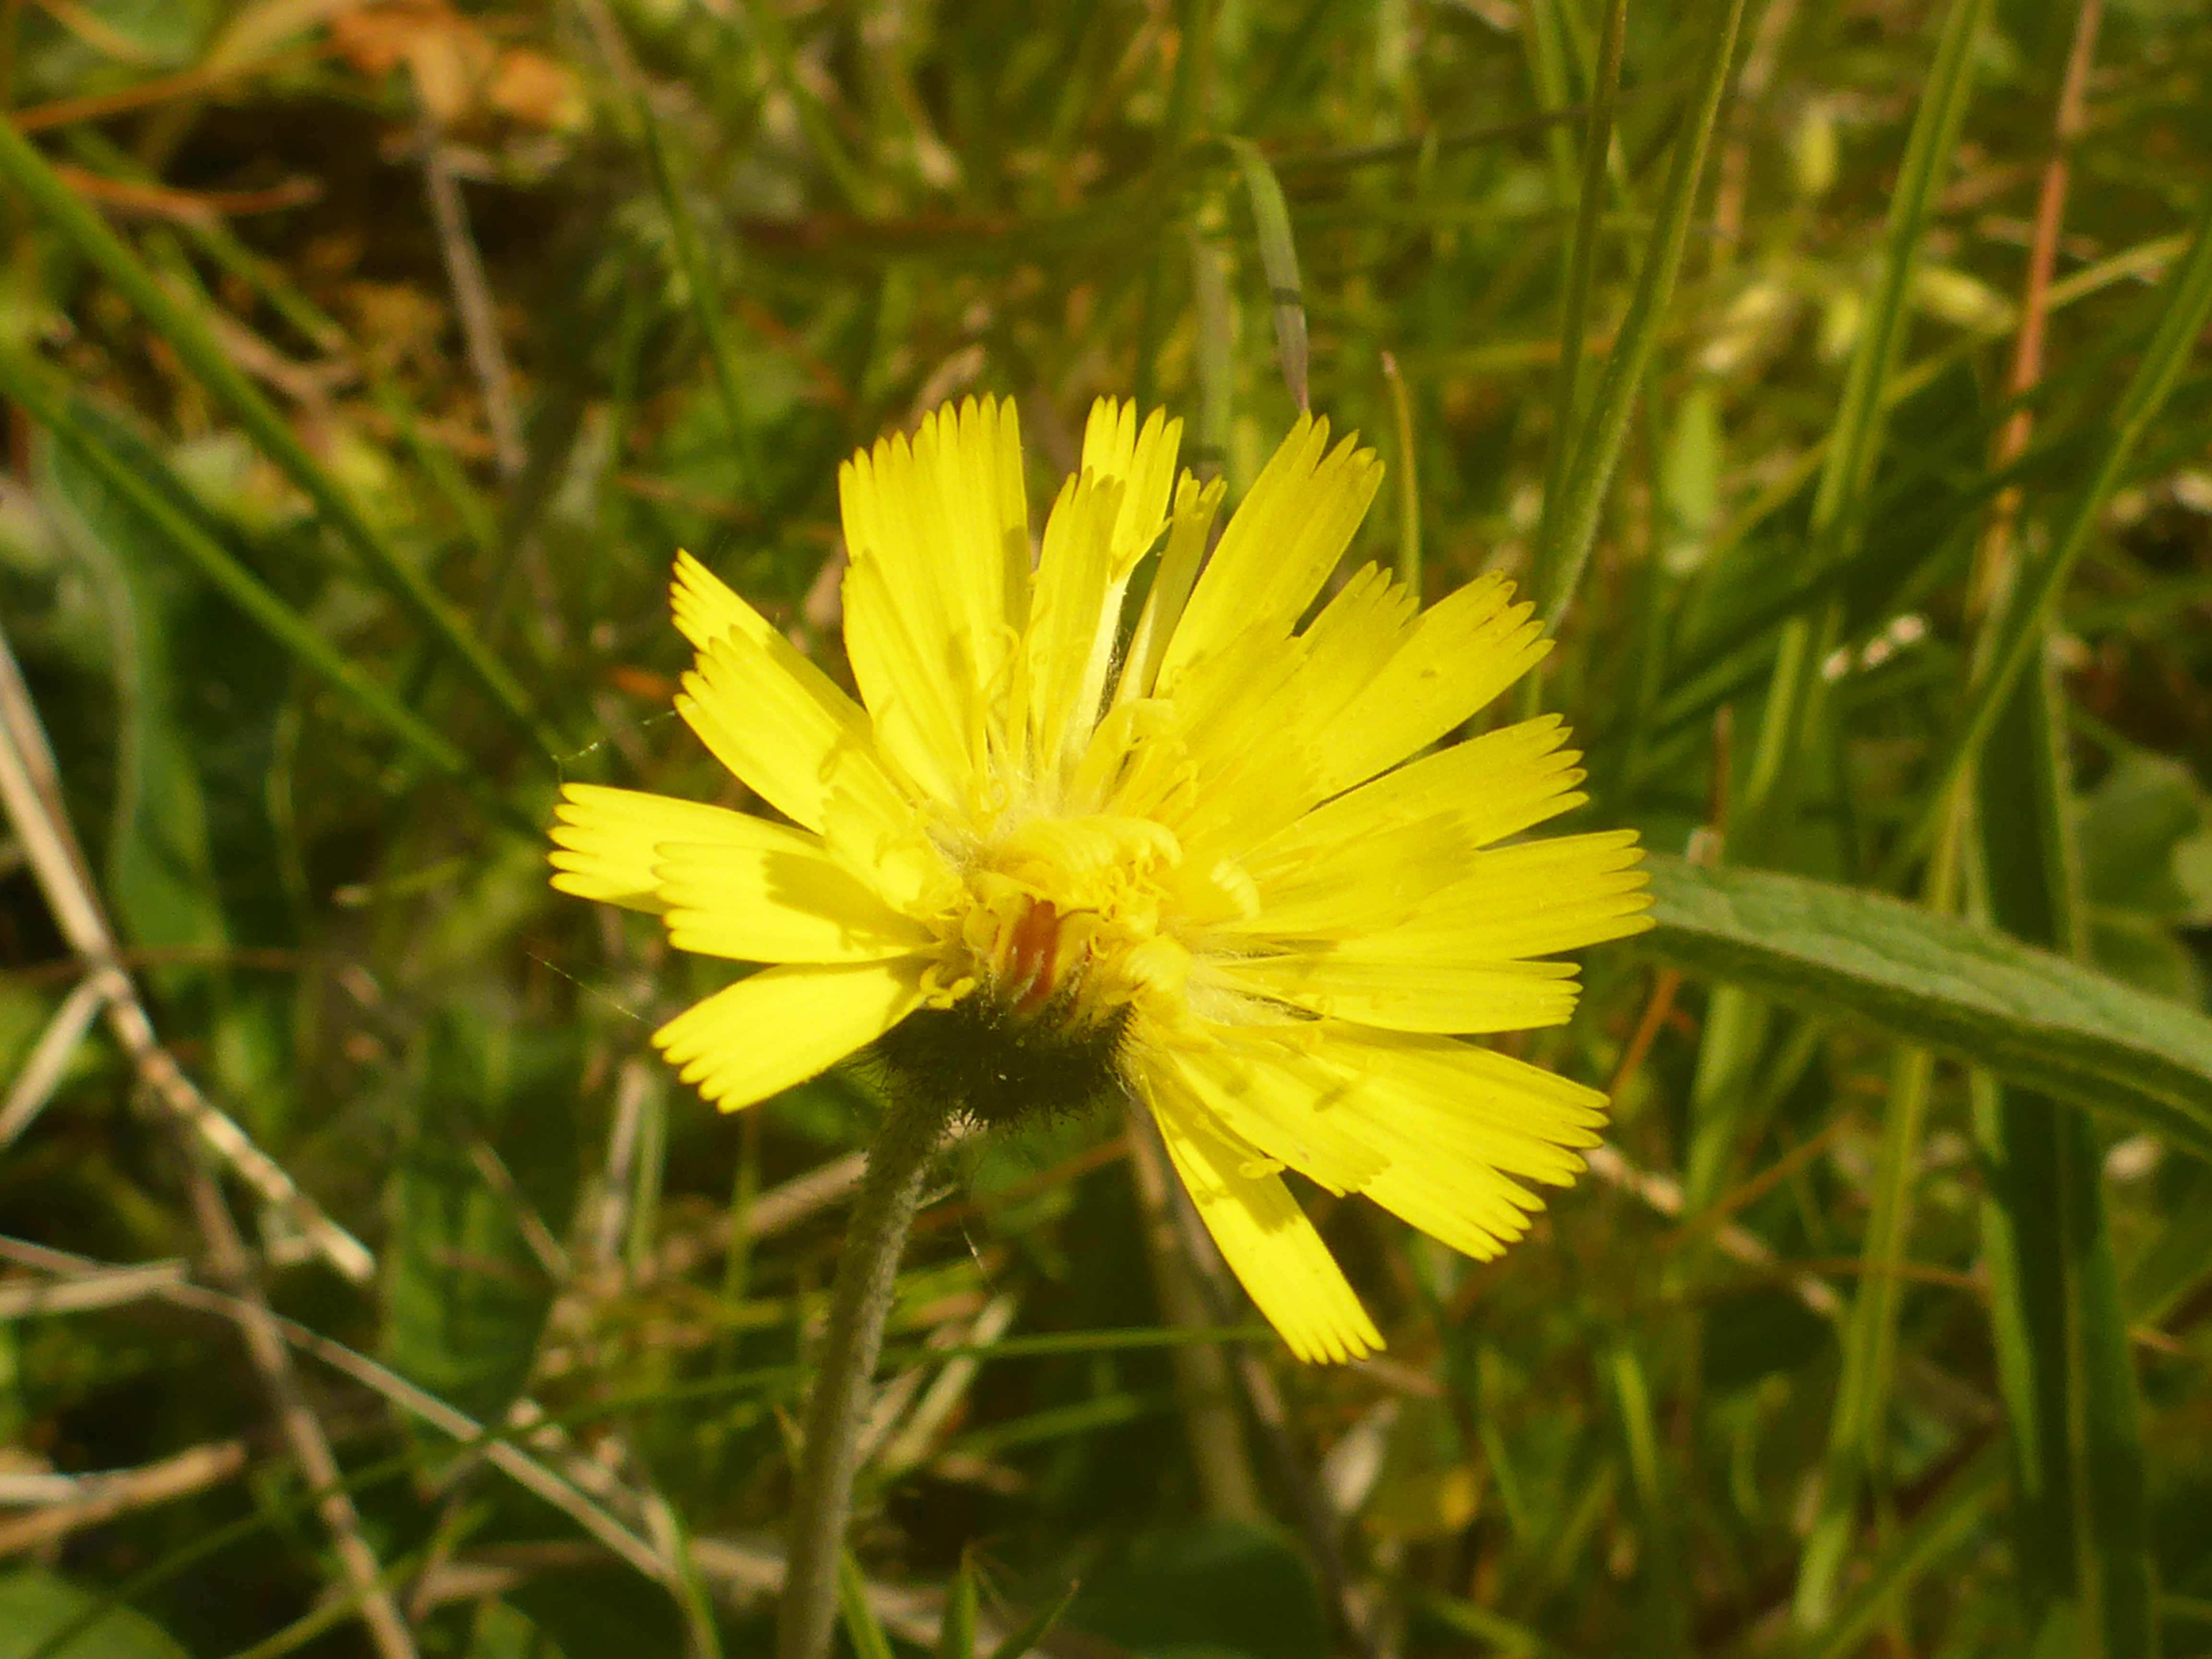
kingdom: Plantae
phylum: Tracheophyta
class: Magnoliopsida
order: Asterales
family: Asteraceae
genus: Pilosella
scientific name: Pilosella officinarum
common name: Håret høgeurt
